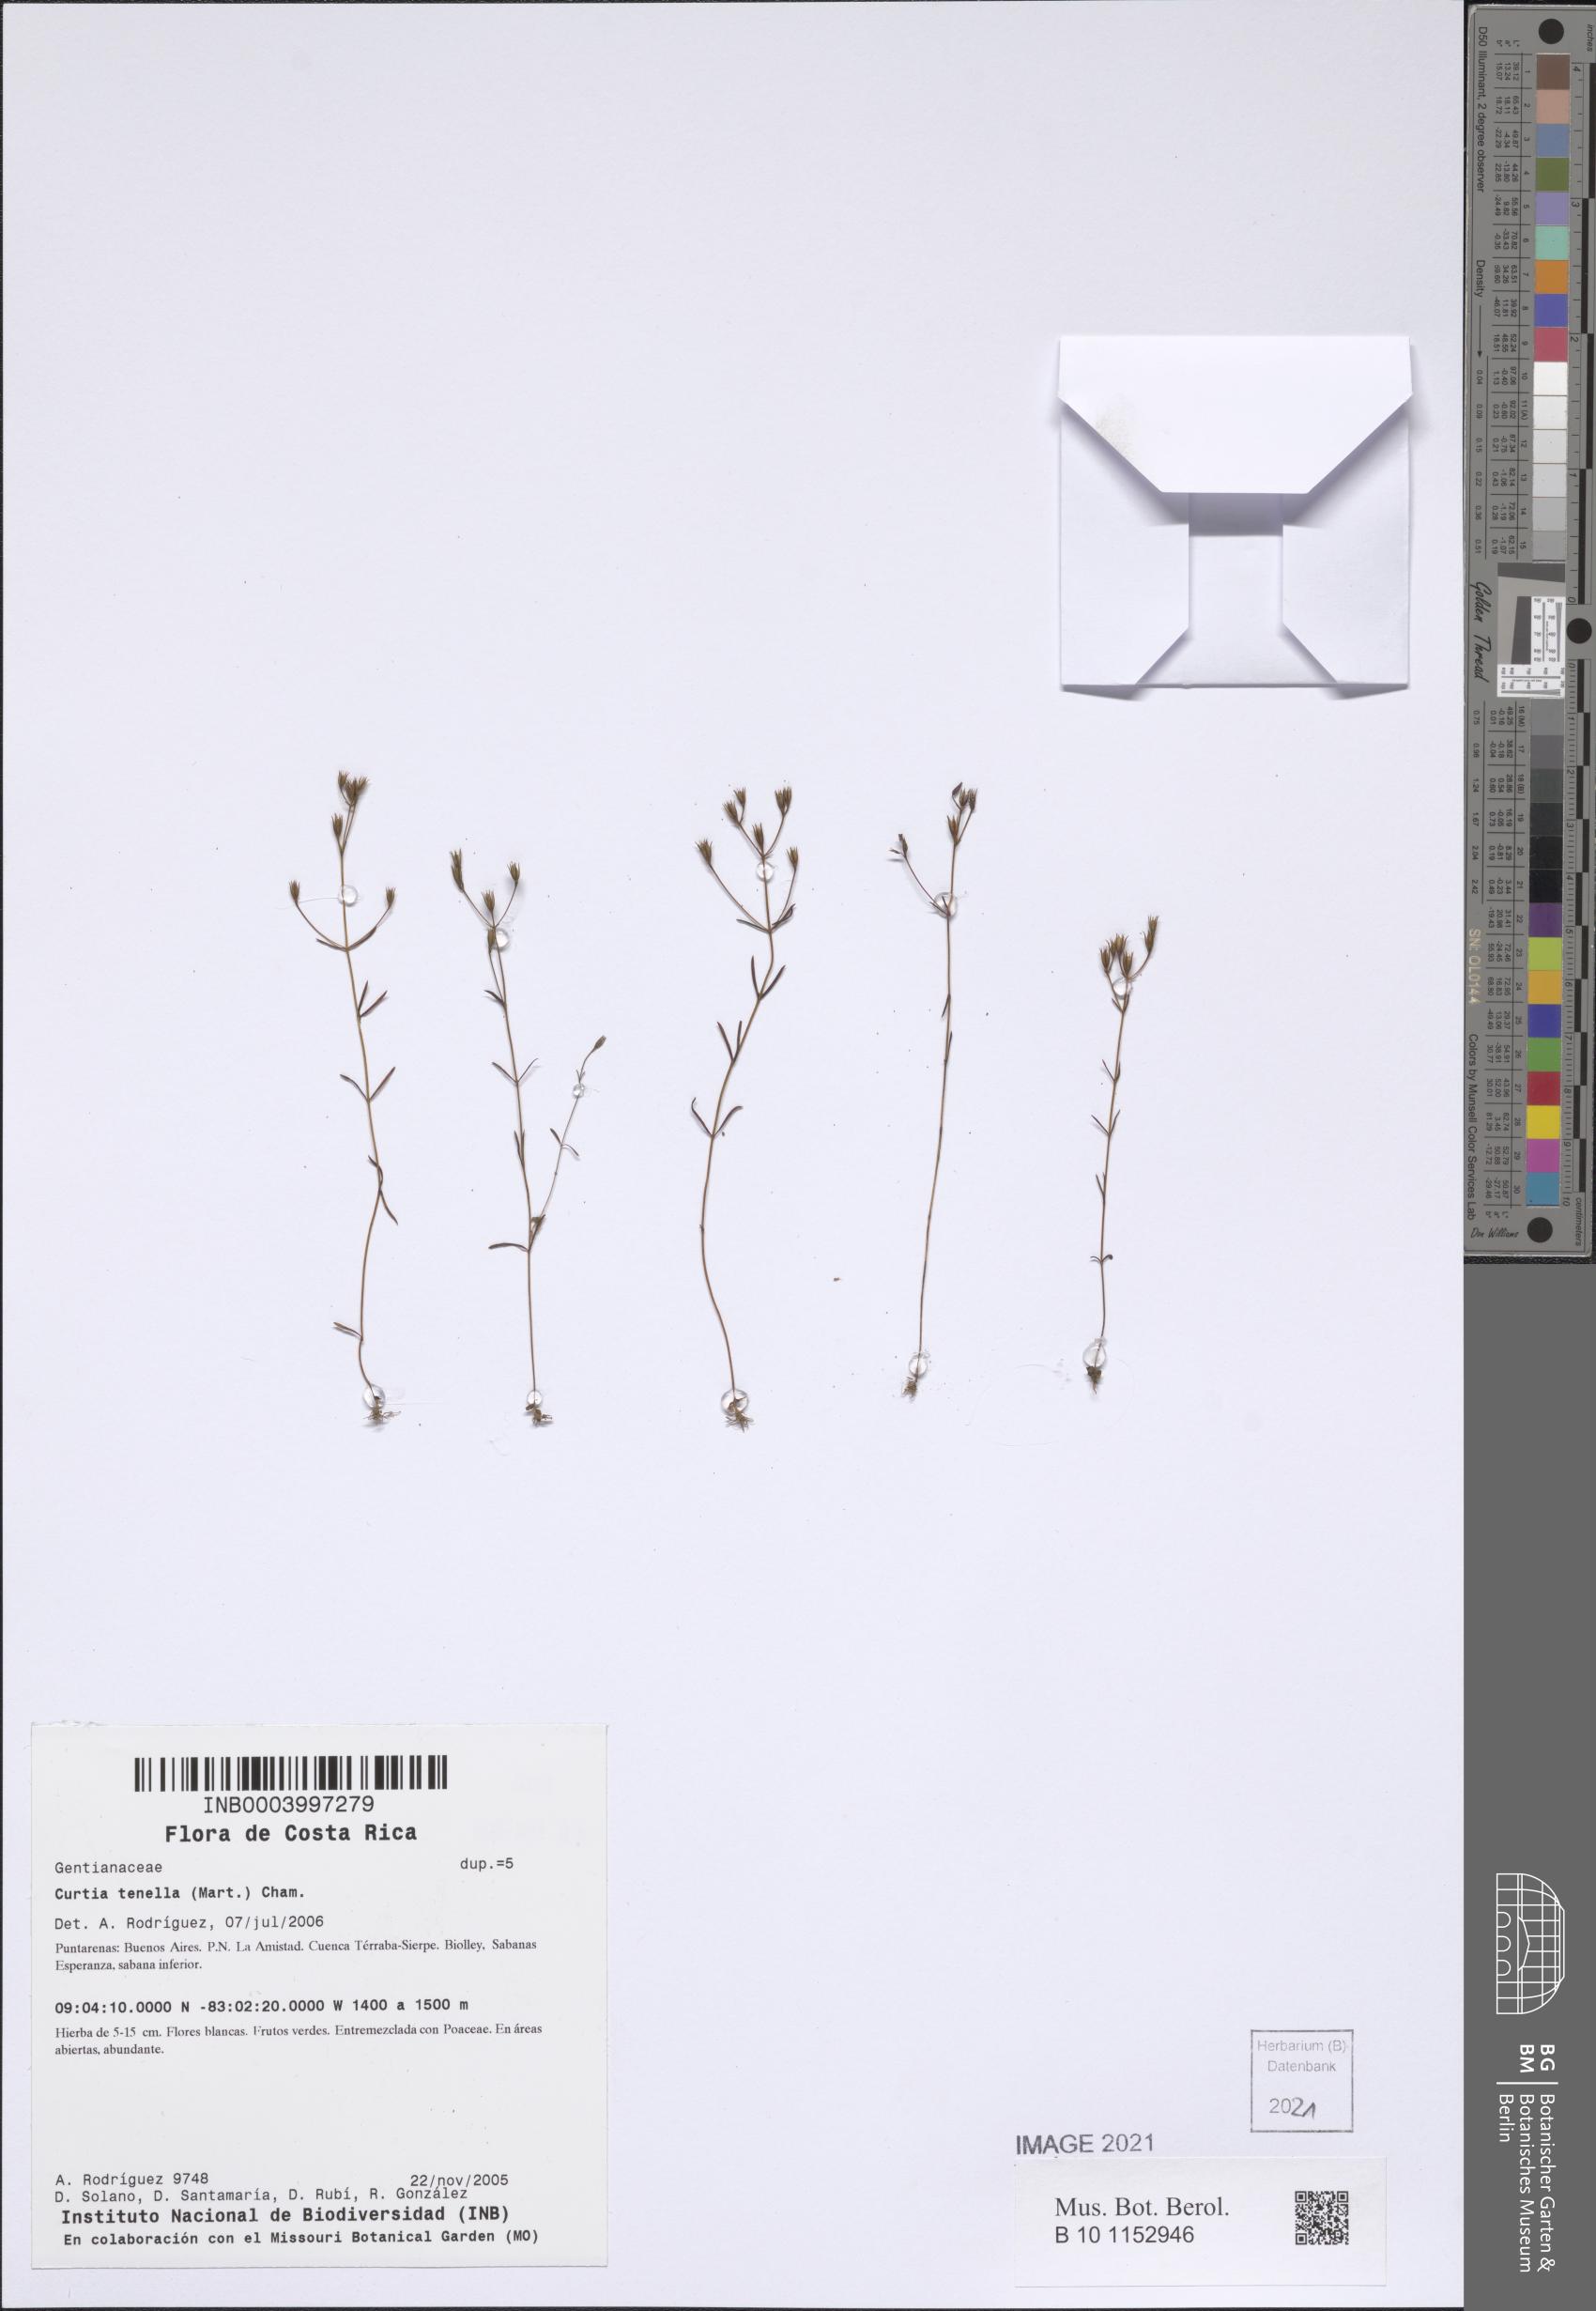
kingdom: Plantae
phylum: Tracheophyta
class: Magnoliopsida
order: Gentianales
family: Gentianaceae
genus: Curtia
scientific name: Curtia tenella
